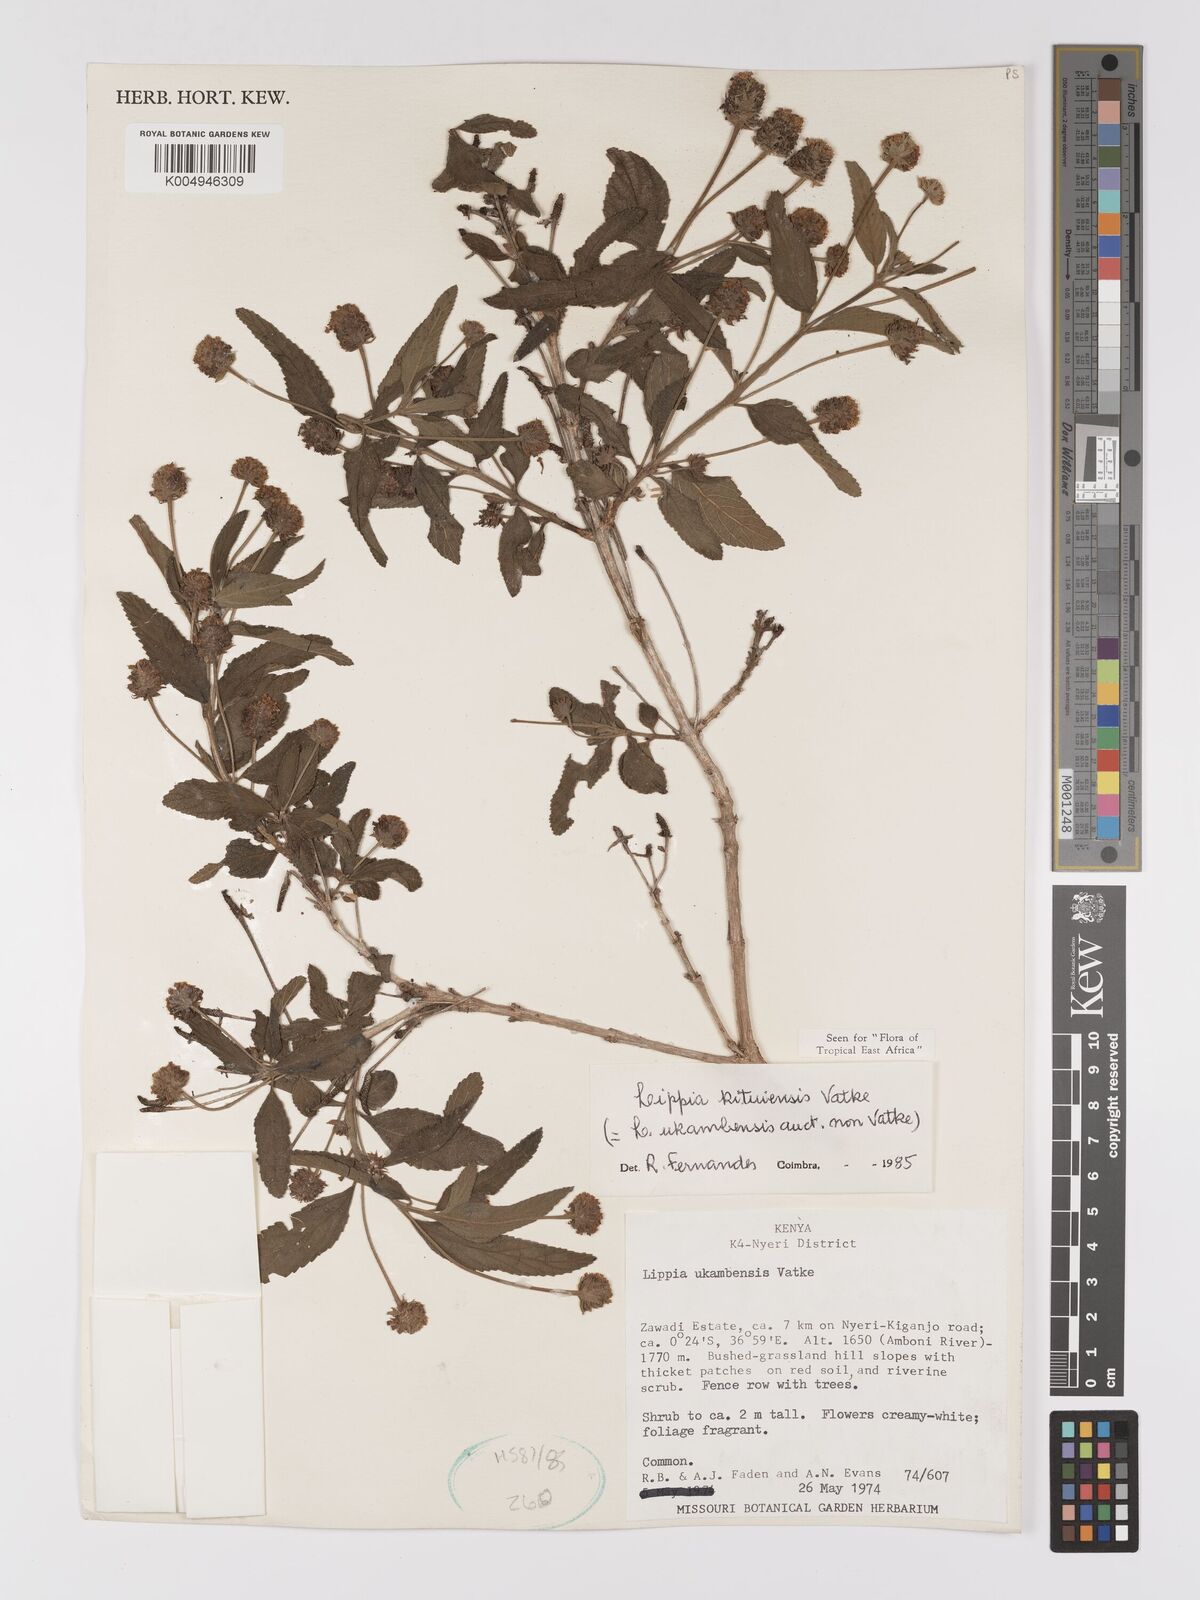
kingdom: Plantae
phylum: Tracheophyta
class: Magnoliopsida
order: Lamiales
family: Verbenaceae
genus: Lippia
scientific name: Lippia kituiensis
